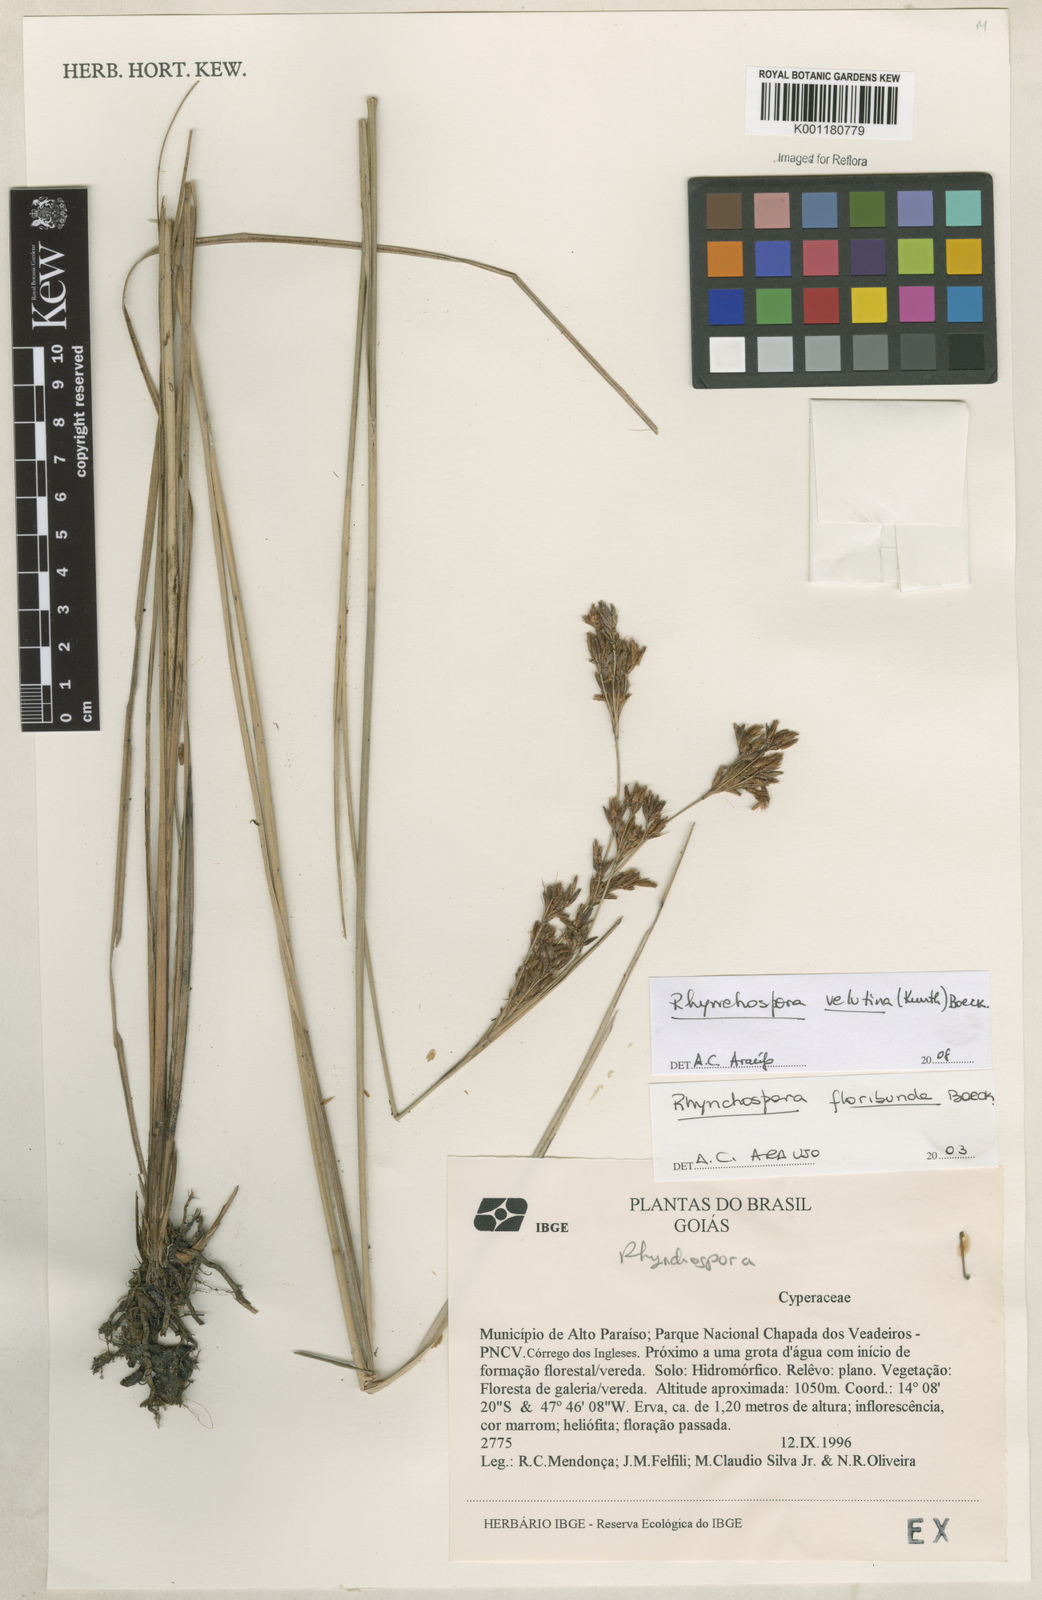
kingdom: Plantae
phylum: Tracheophyta
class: Liliopsida
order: Poales
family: Cyperaceae
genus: Rhynchospora
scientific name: Rhynchospora velutina
